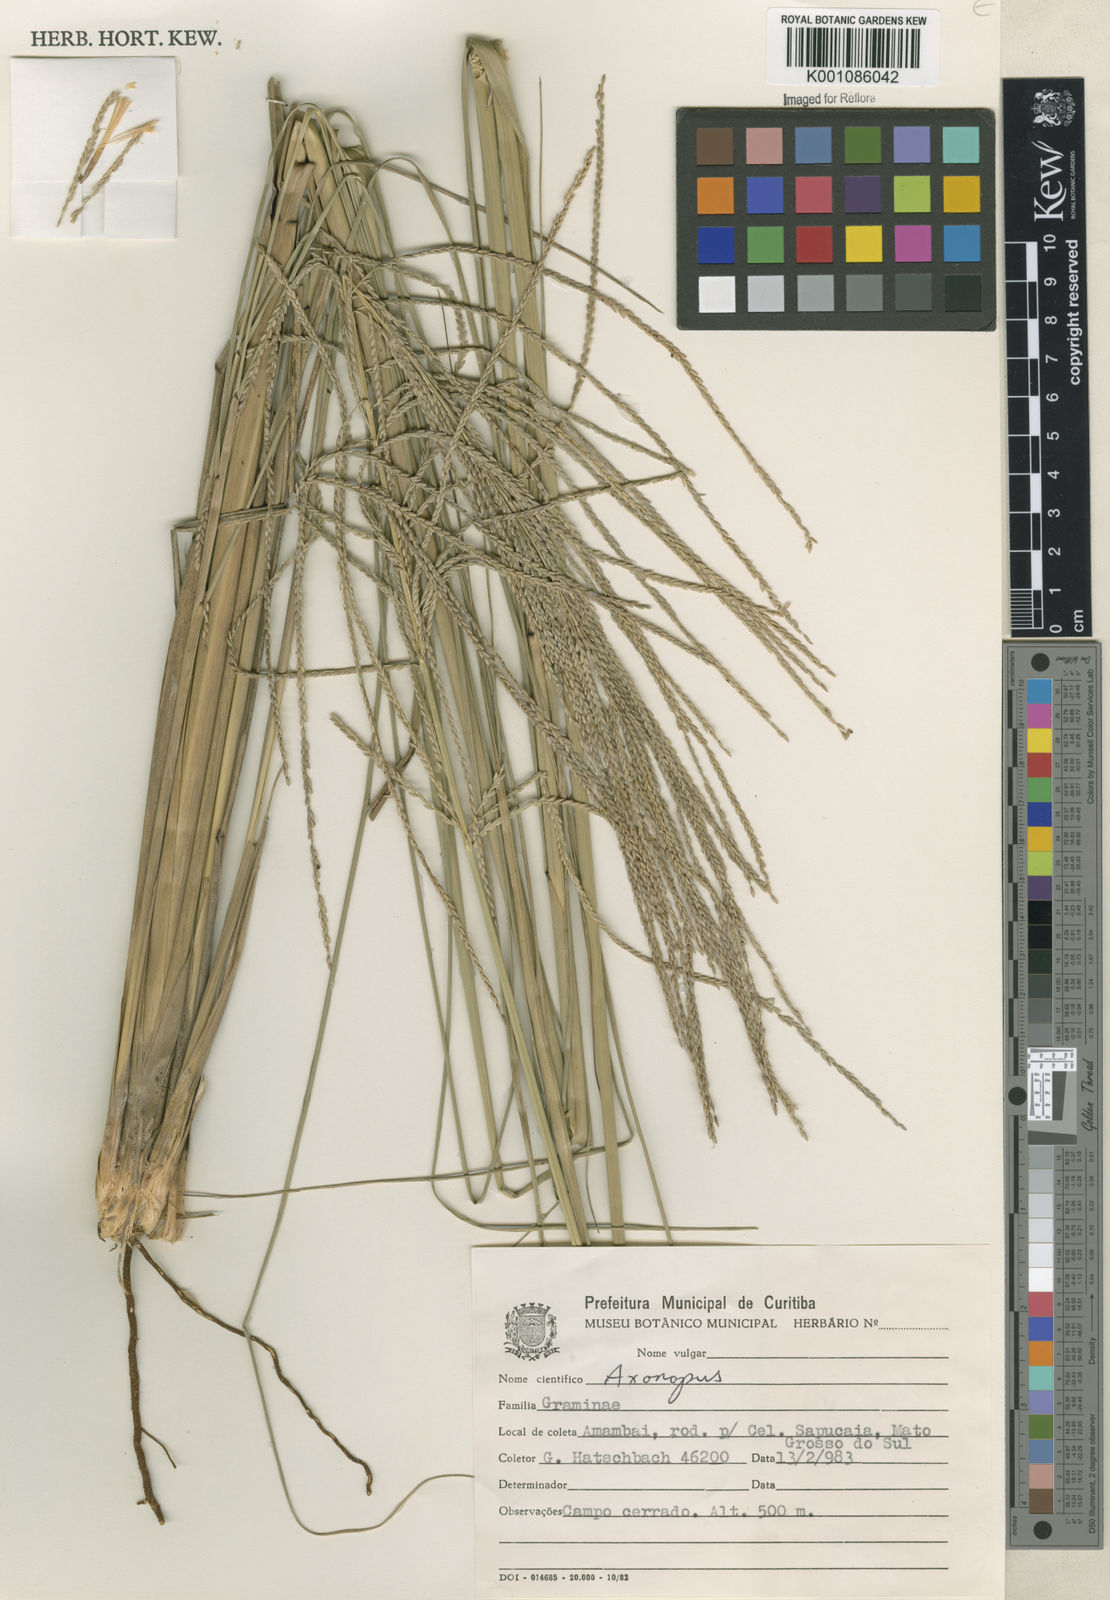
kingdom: Plantae
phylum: Tracheophyta
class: Liliopsida
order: Poales
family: Poaceae
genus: Axonopus
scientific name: Axonopus siccus
